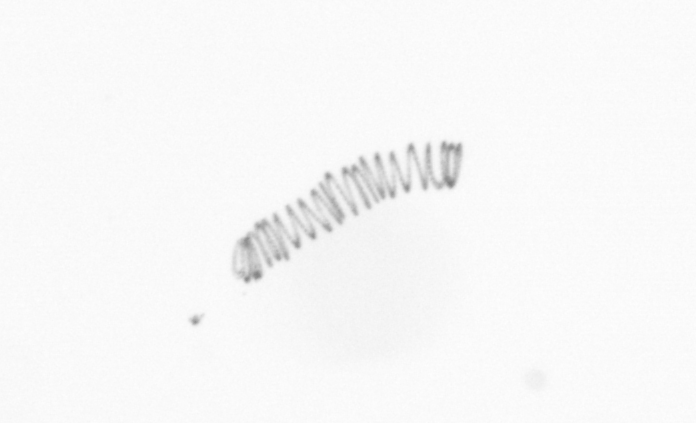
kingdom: Chromista
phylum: Ochrophyta
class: Bacillariophyceae
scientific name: Bacillariophyceae
